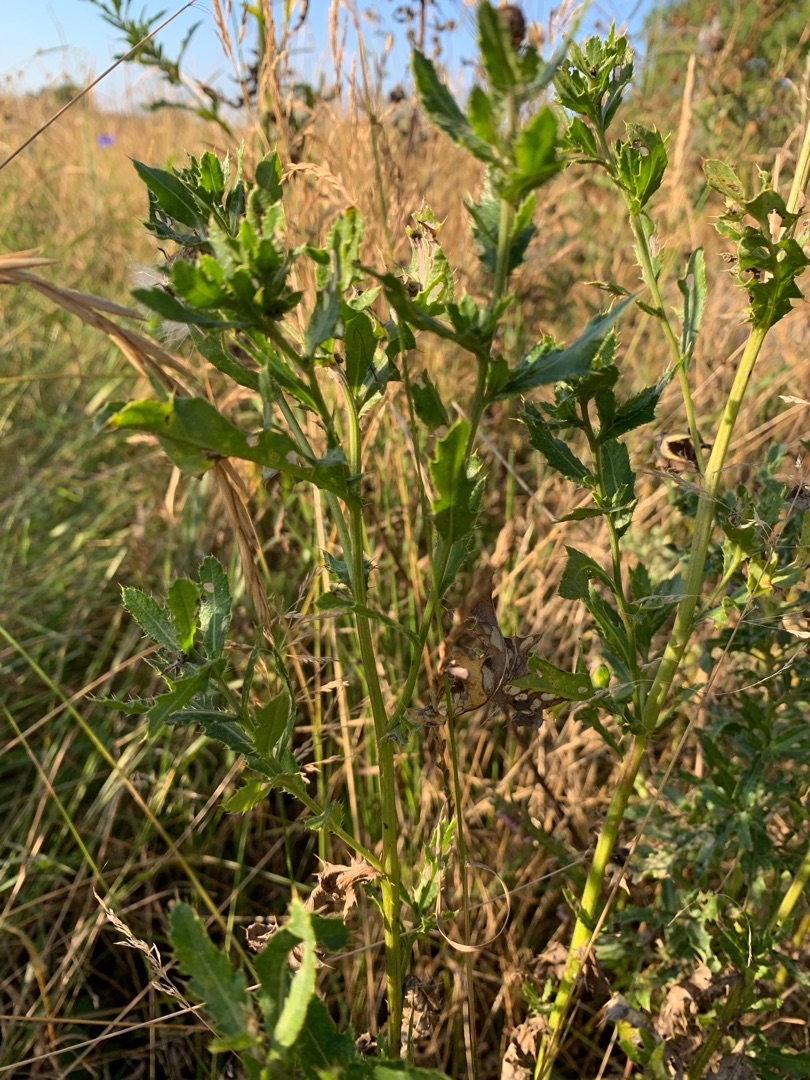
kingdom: Plantae
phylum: Tracheophyta
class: Magnoliopsida
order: Asterales
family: Asteraceae
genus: Cirsium
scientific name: Cirsium arvense
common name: Ager-tidsel
